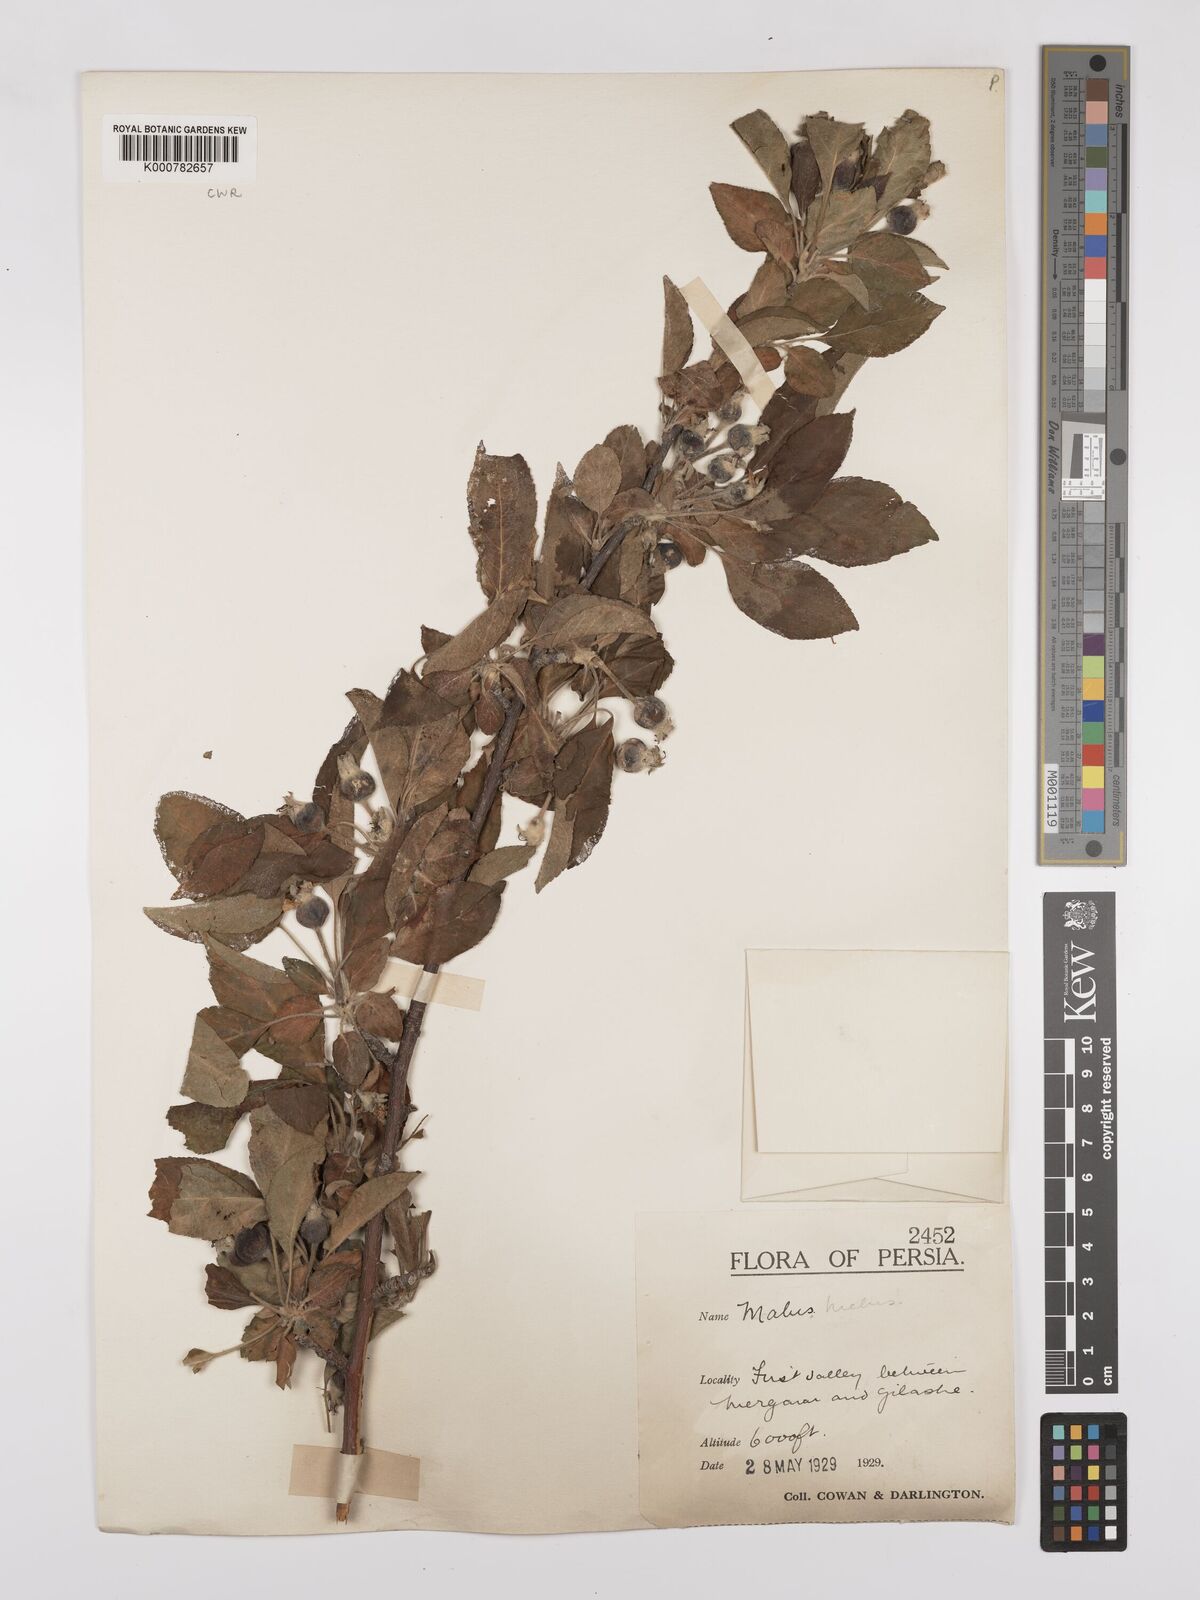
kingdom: Plantae
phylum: Tracheophyta
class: Magnoliopsida
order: Rosales
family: Rosaceae
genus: Malus
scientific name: Malus domestica
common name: Apple
